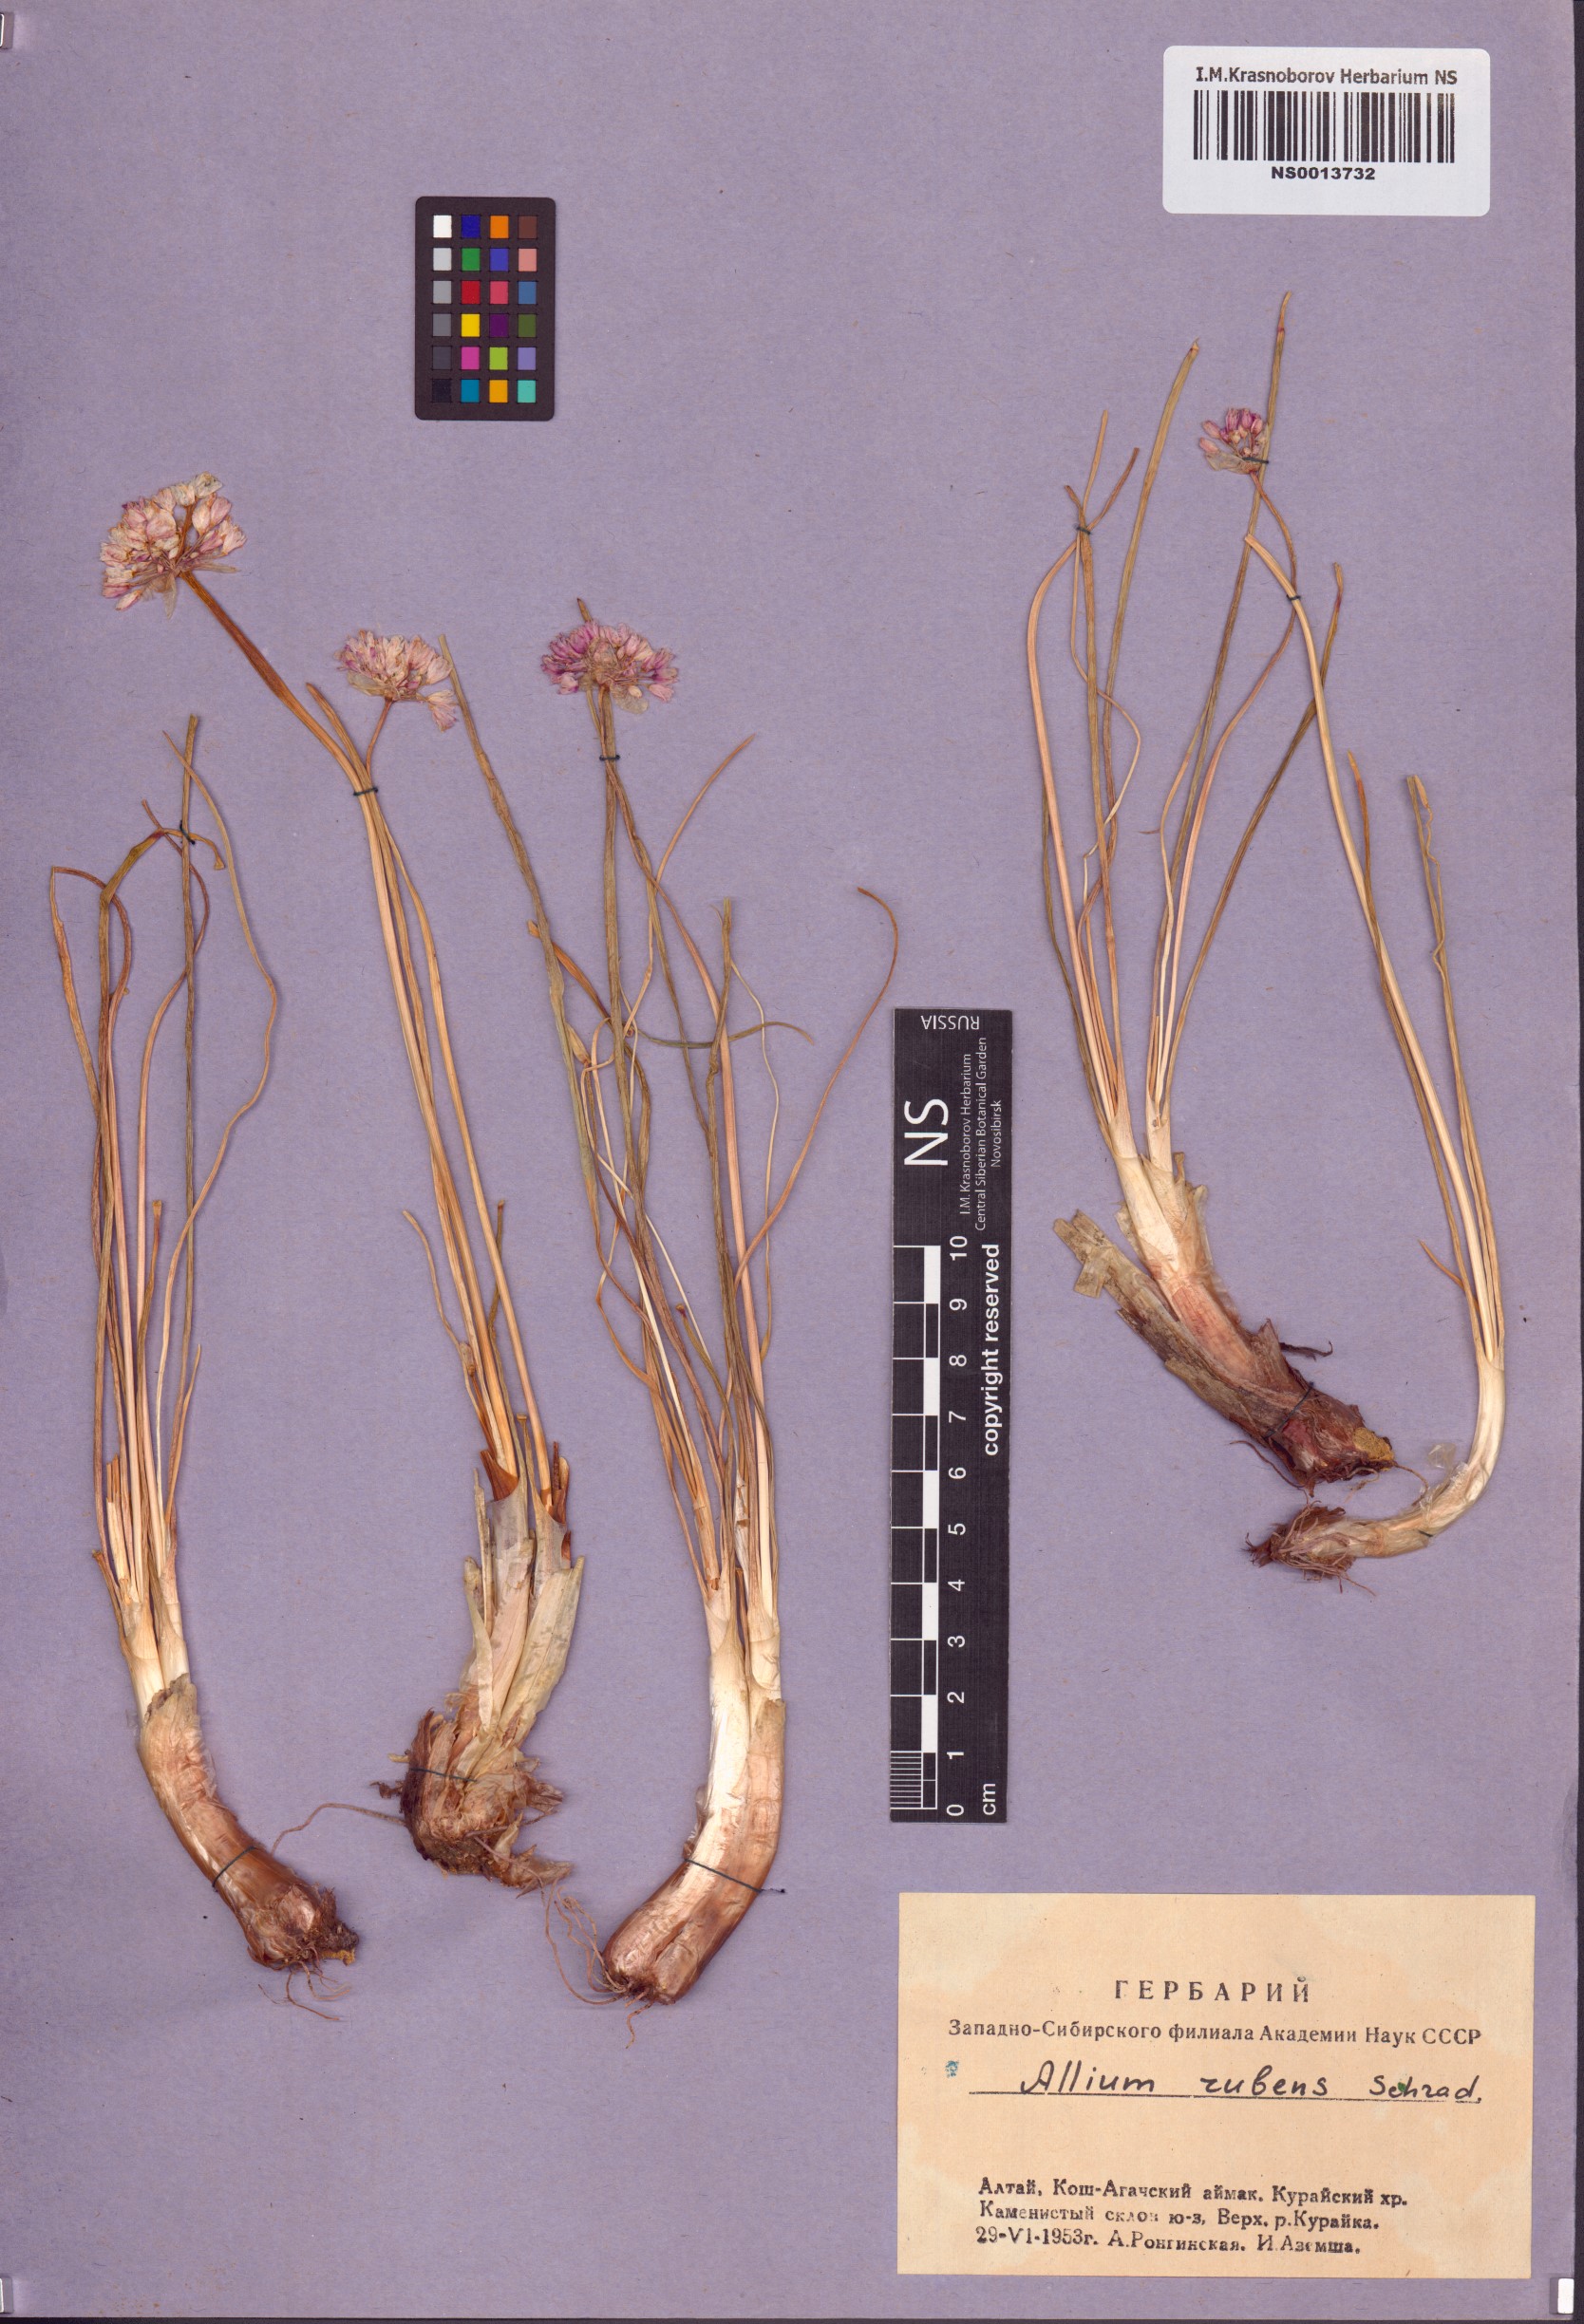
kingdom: Plantae
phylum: Tracheophyta
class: Liliopsida
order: Asparagales
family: Amaryllidaceae
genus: Allium
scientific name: Allium rubens
